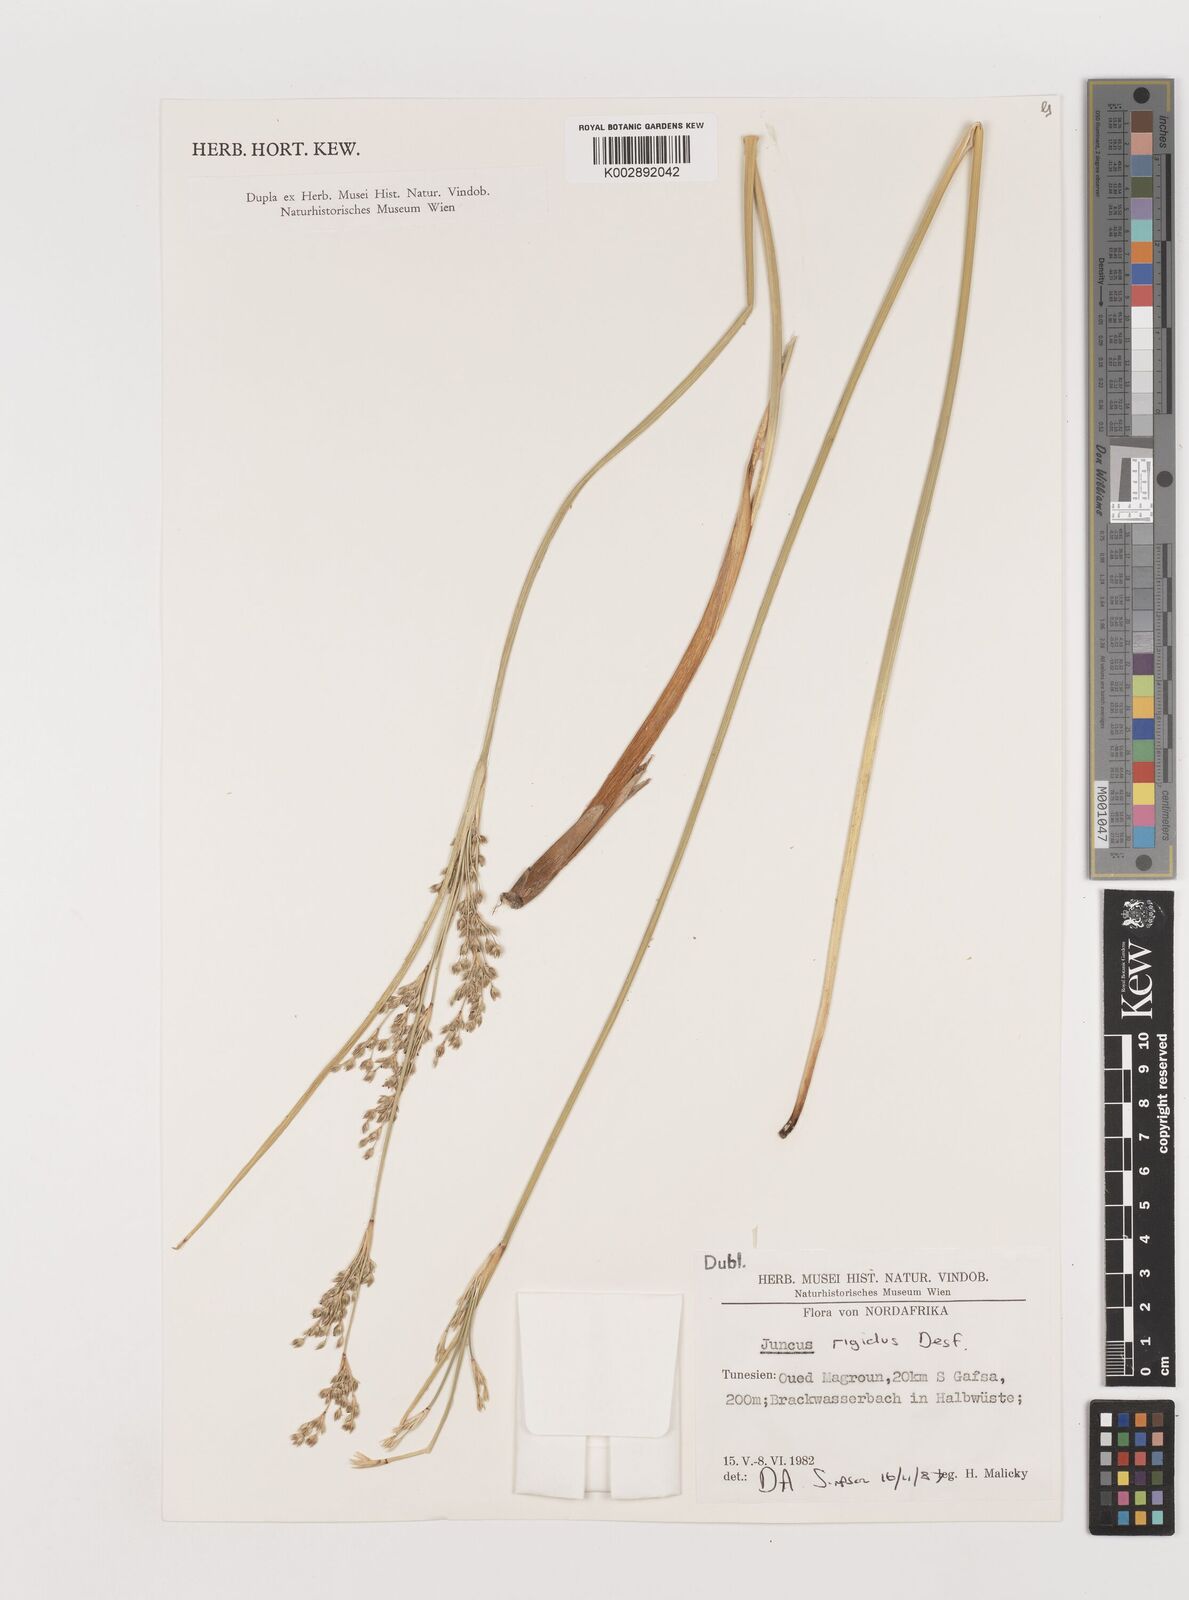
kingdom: Plantae
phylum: Tracheophyta
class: Liliopsida
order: Poales
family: Juncaceae
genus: Juncus
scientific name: Juncus rigidus
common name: Hard sea rush
